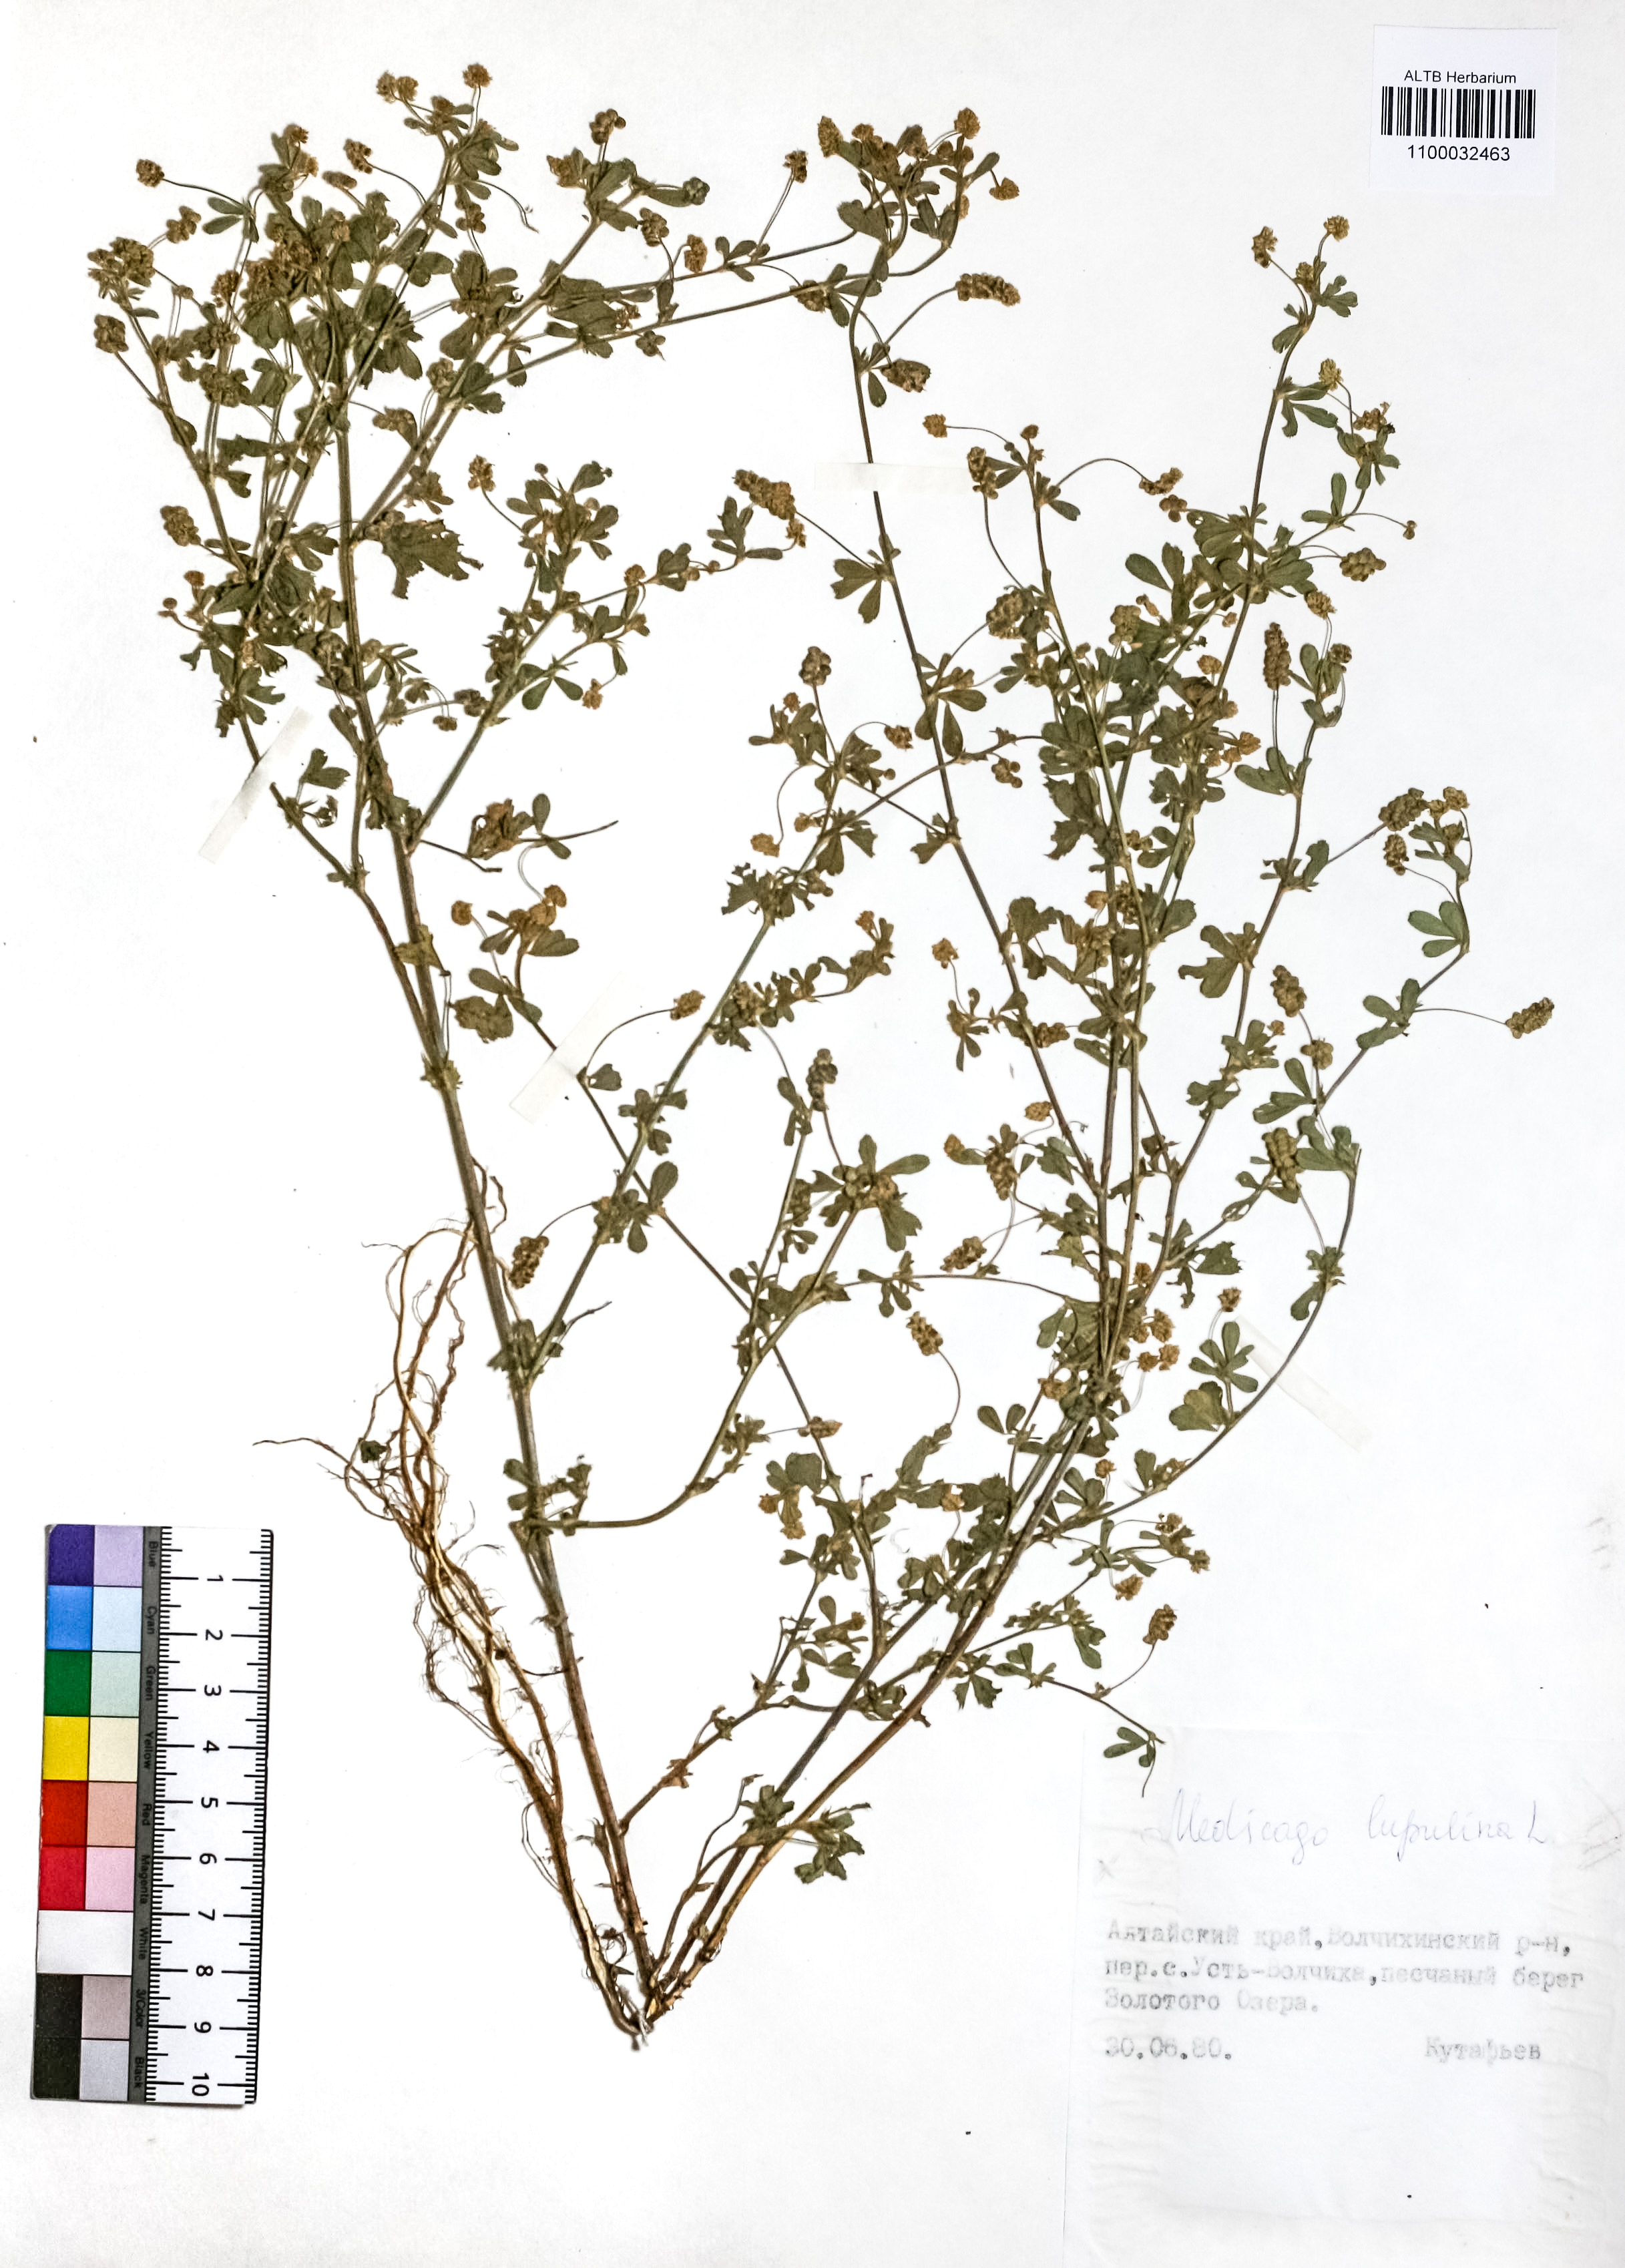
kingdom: Plantae
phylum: Tracheophyta
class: Magnoliopsida
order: Fabales
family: Fabaceae
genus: Medicago
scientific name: Medicago lupulina
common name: Black medick
